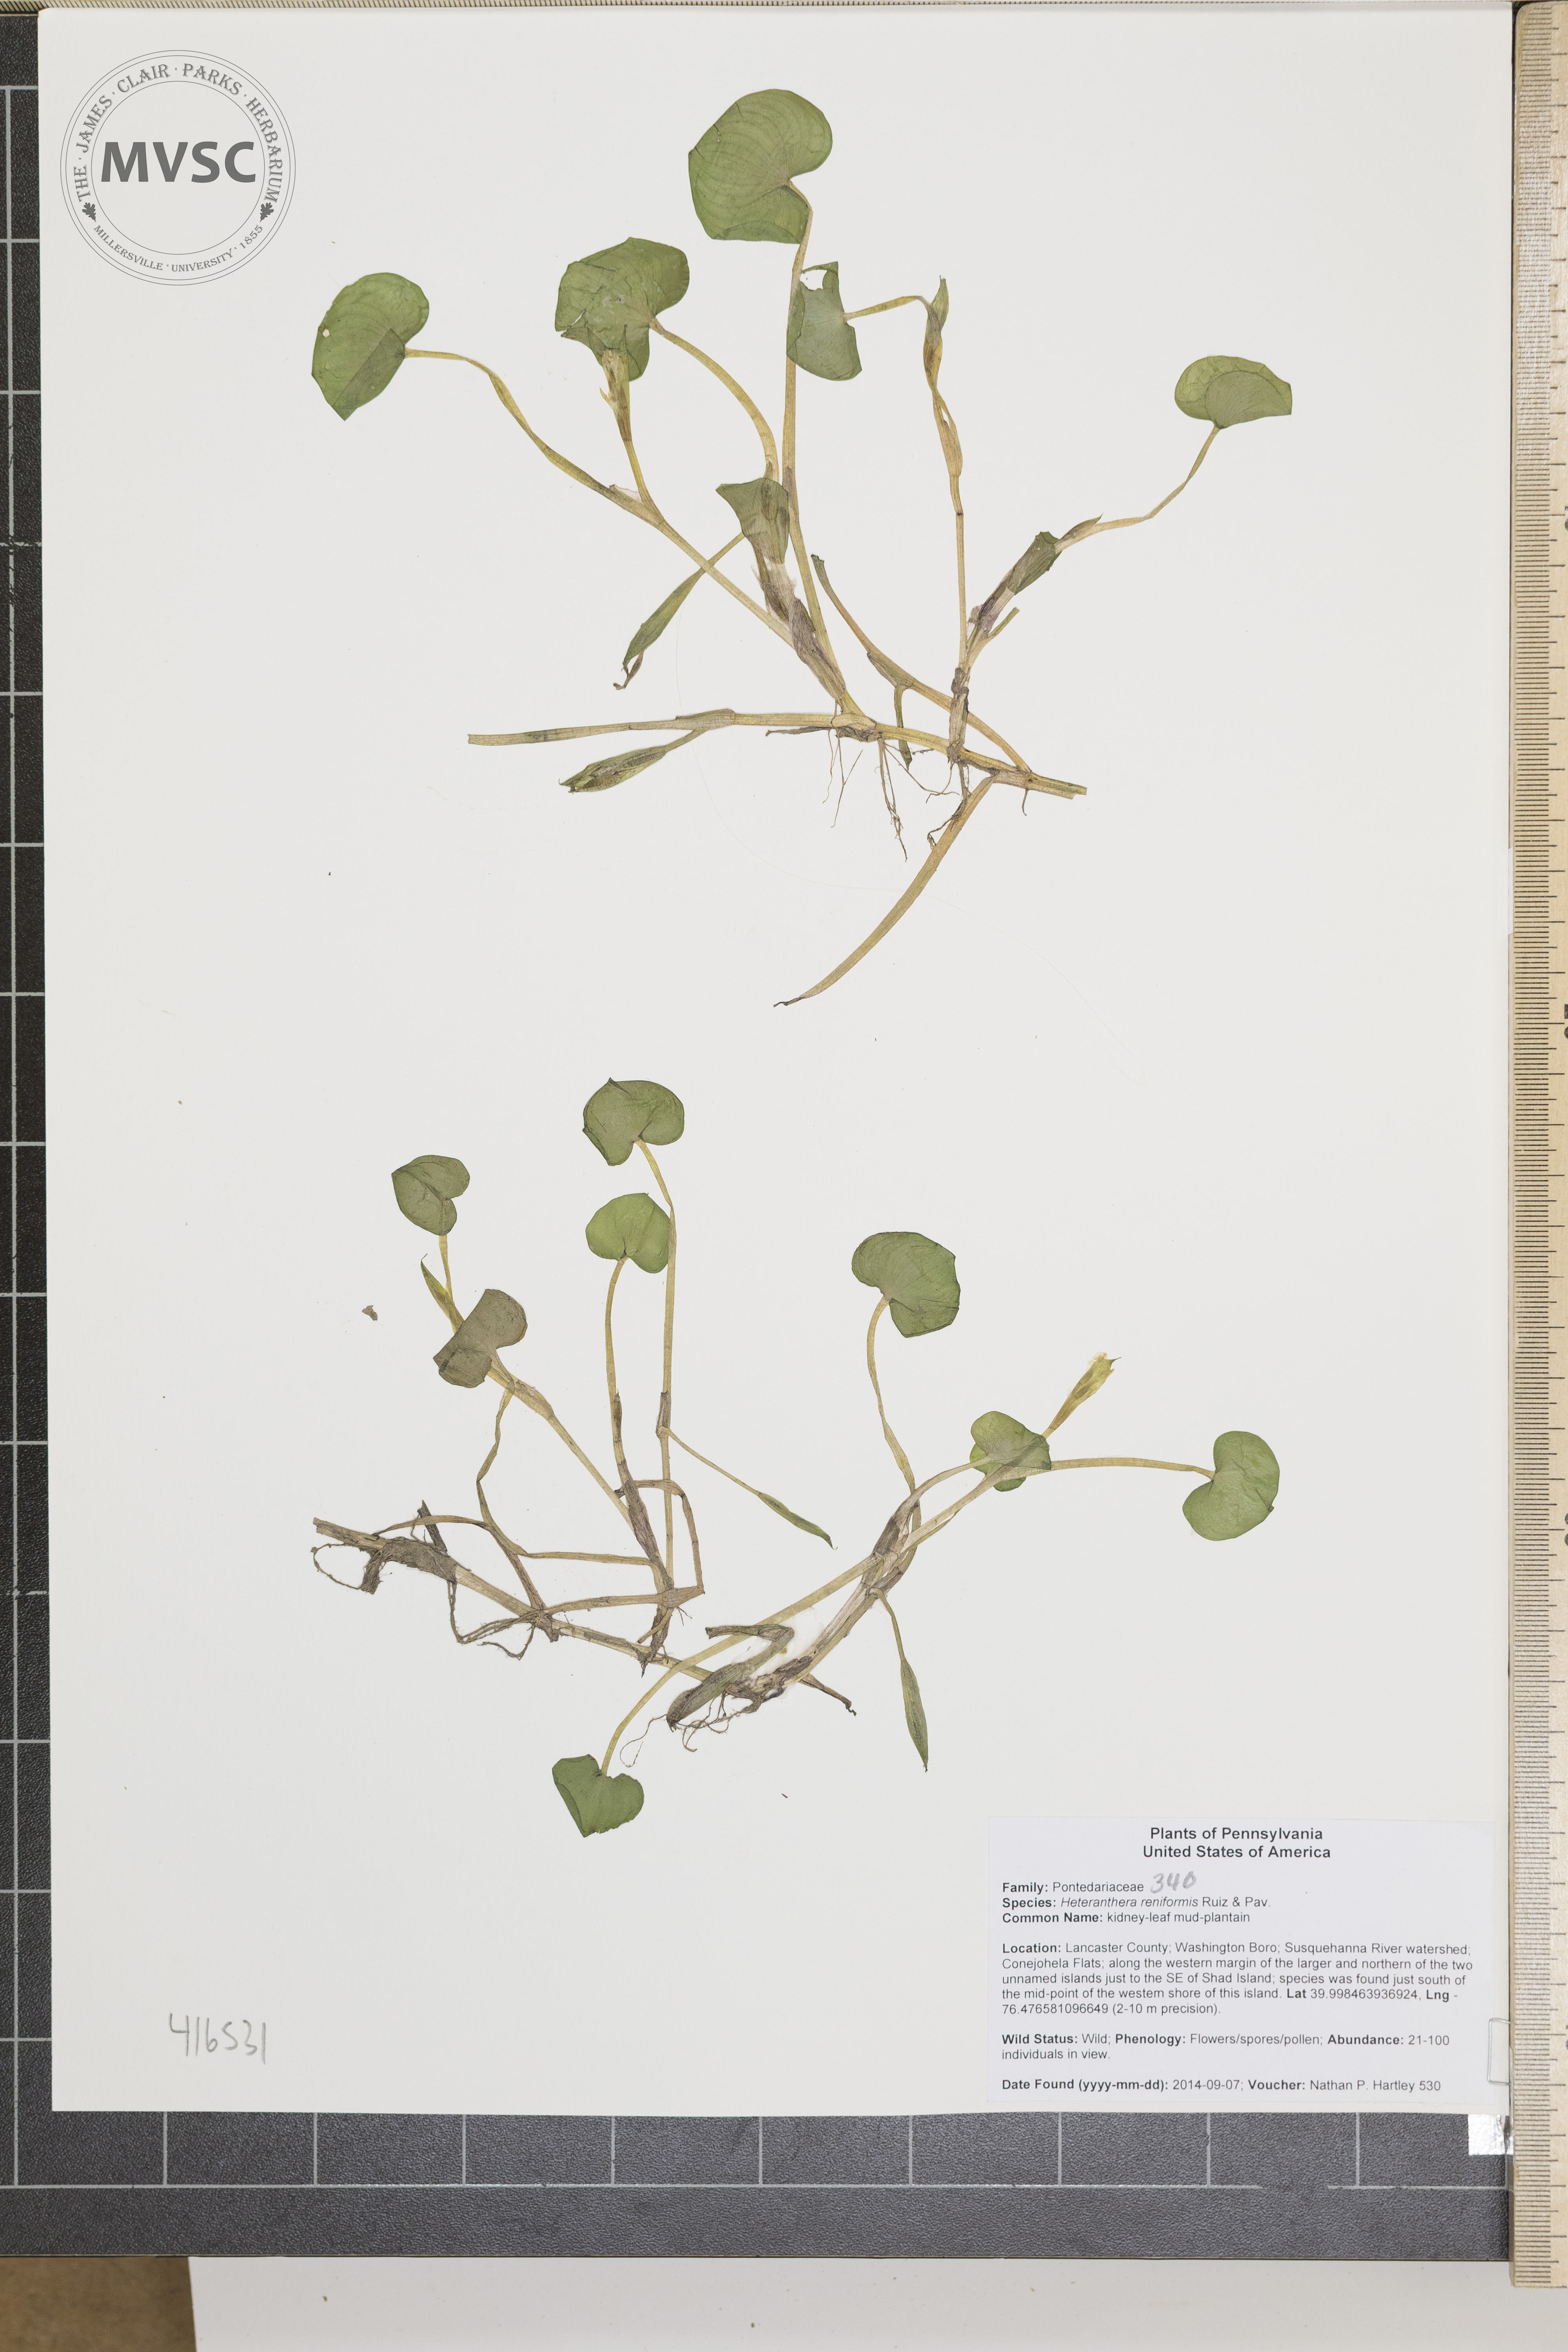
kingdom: Plantae
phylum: Tracheophyta
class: Liliopsida
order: Commelinales
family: Pontederiaceae
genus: Heteranthera
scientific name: Heteranthera reniformis
